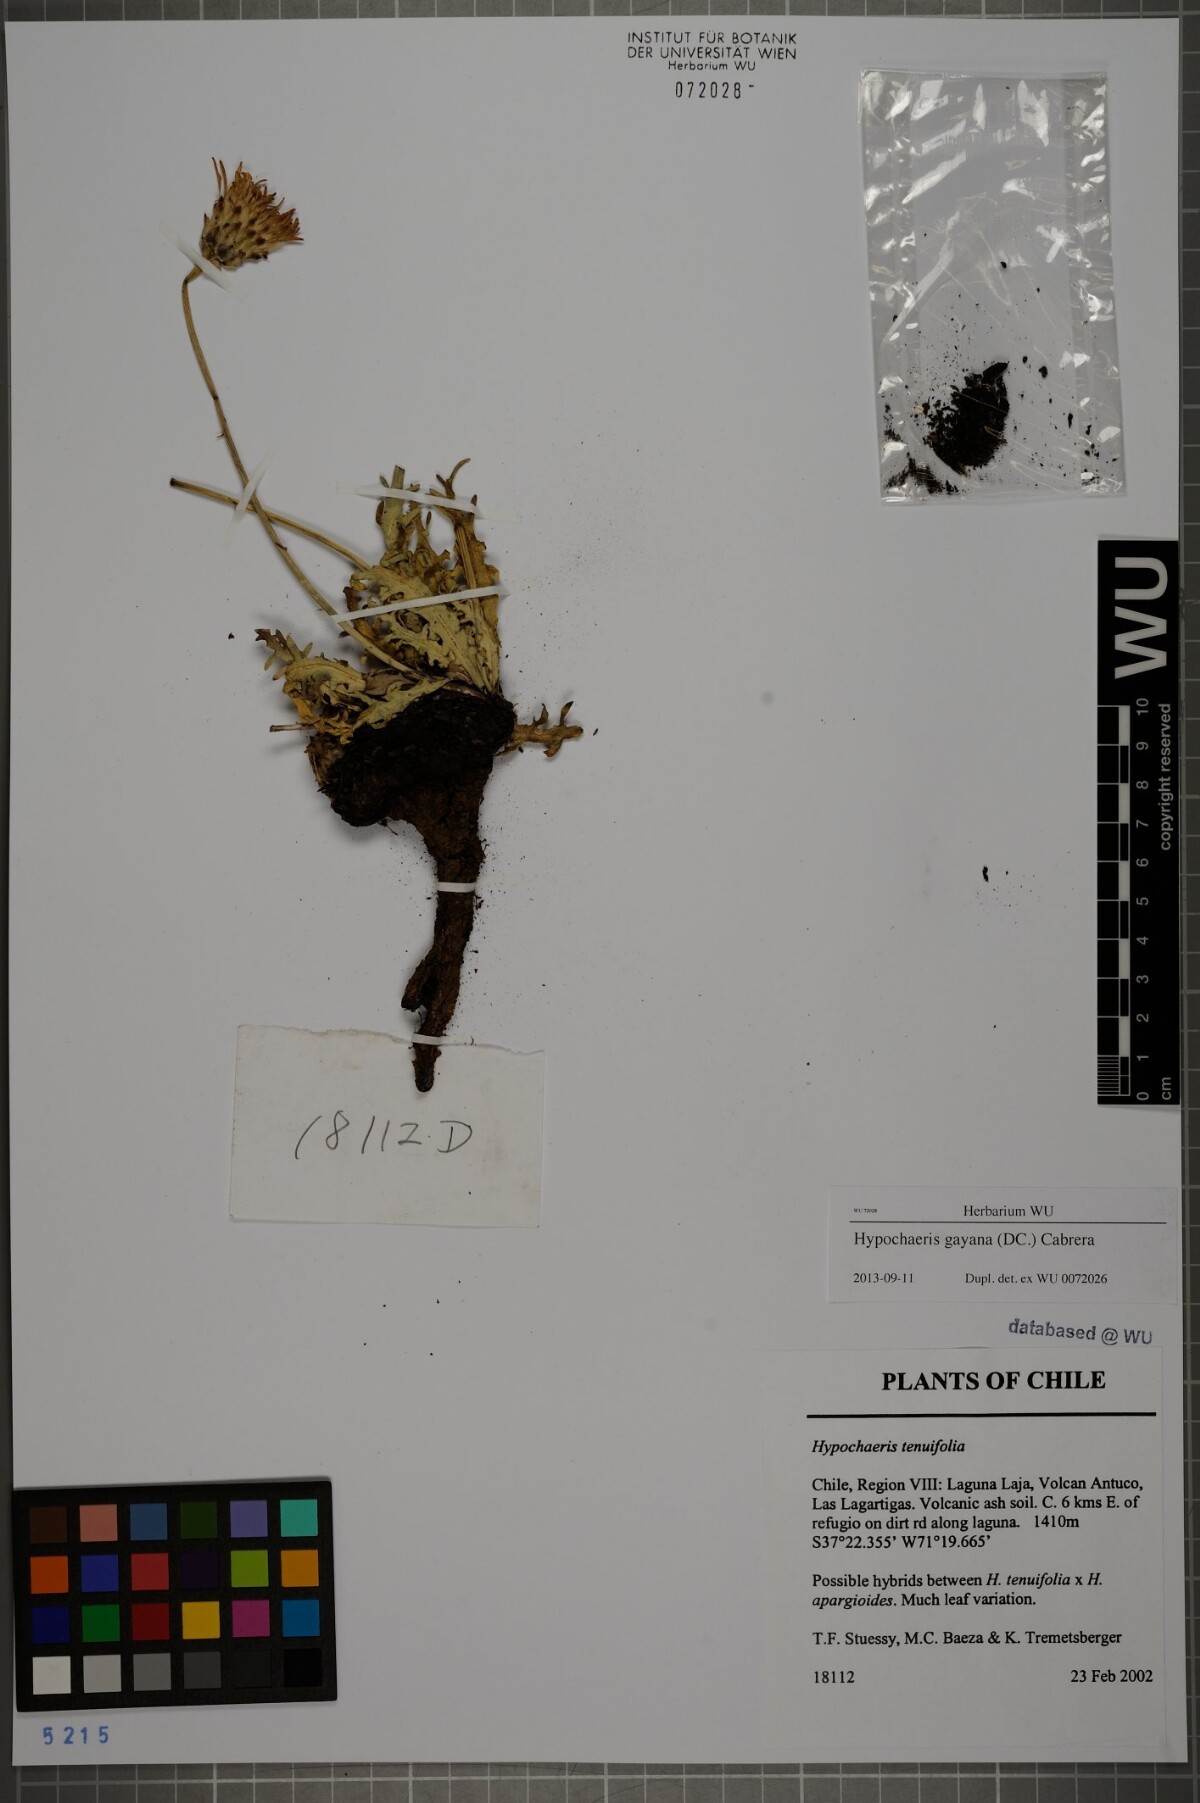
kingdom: Plantae
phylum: Tracheophyta
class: Magnoliopsida
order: Asterales
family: Asteraceae
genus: Hypochaeris
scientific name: Hypochaeris melanolepis
